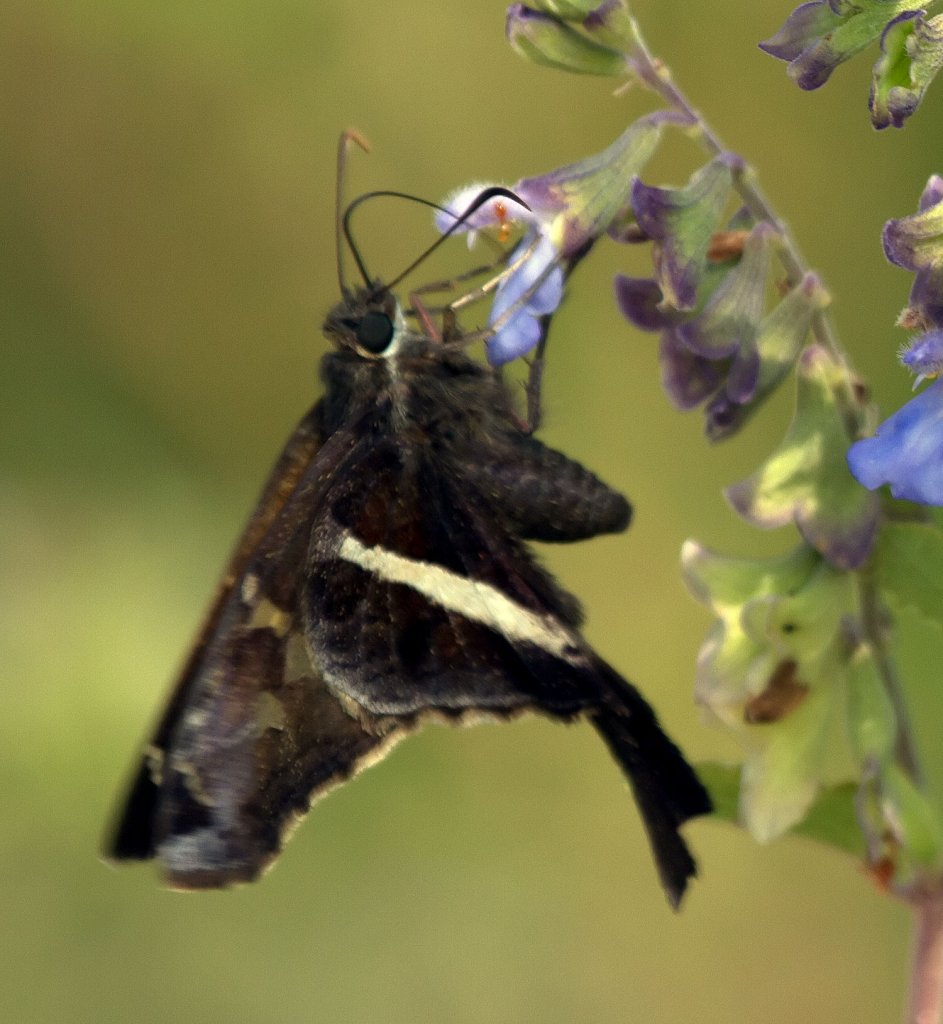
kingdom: Animalia
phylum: Arthropoda
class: Insecta
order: Lepidoptera
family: Hesperiidae
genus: Chioides
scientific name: Chioides catillus
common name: White-striped Longtail
